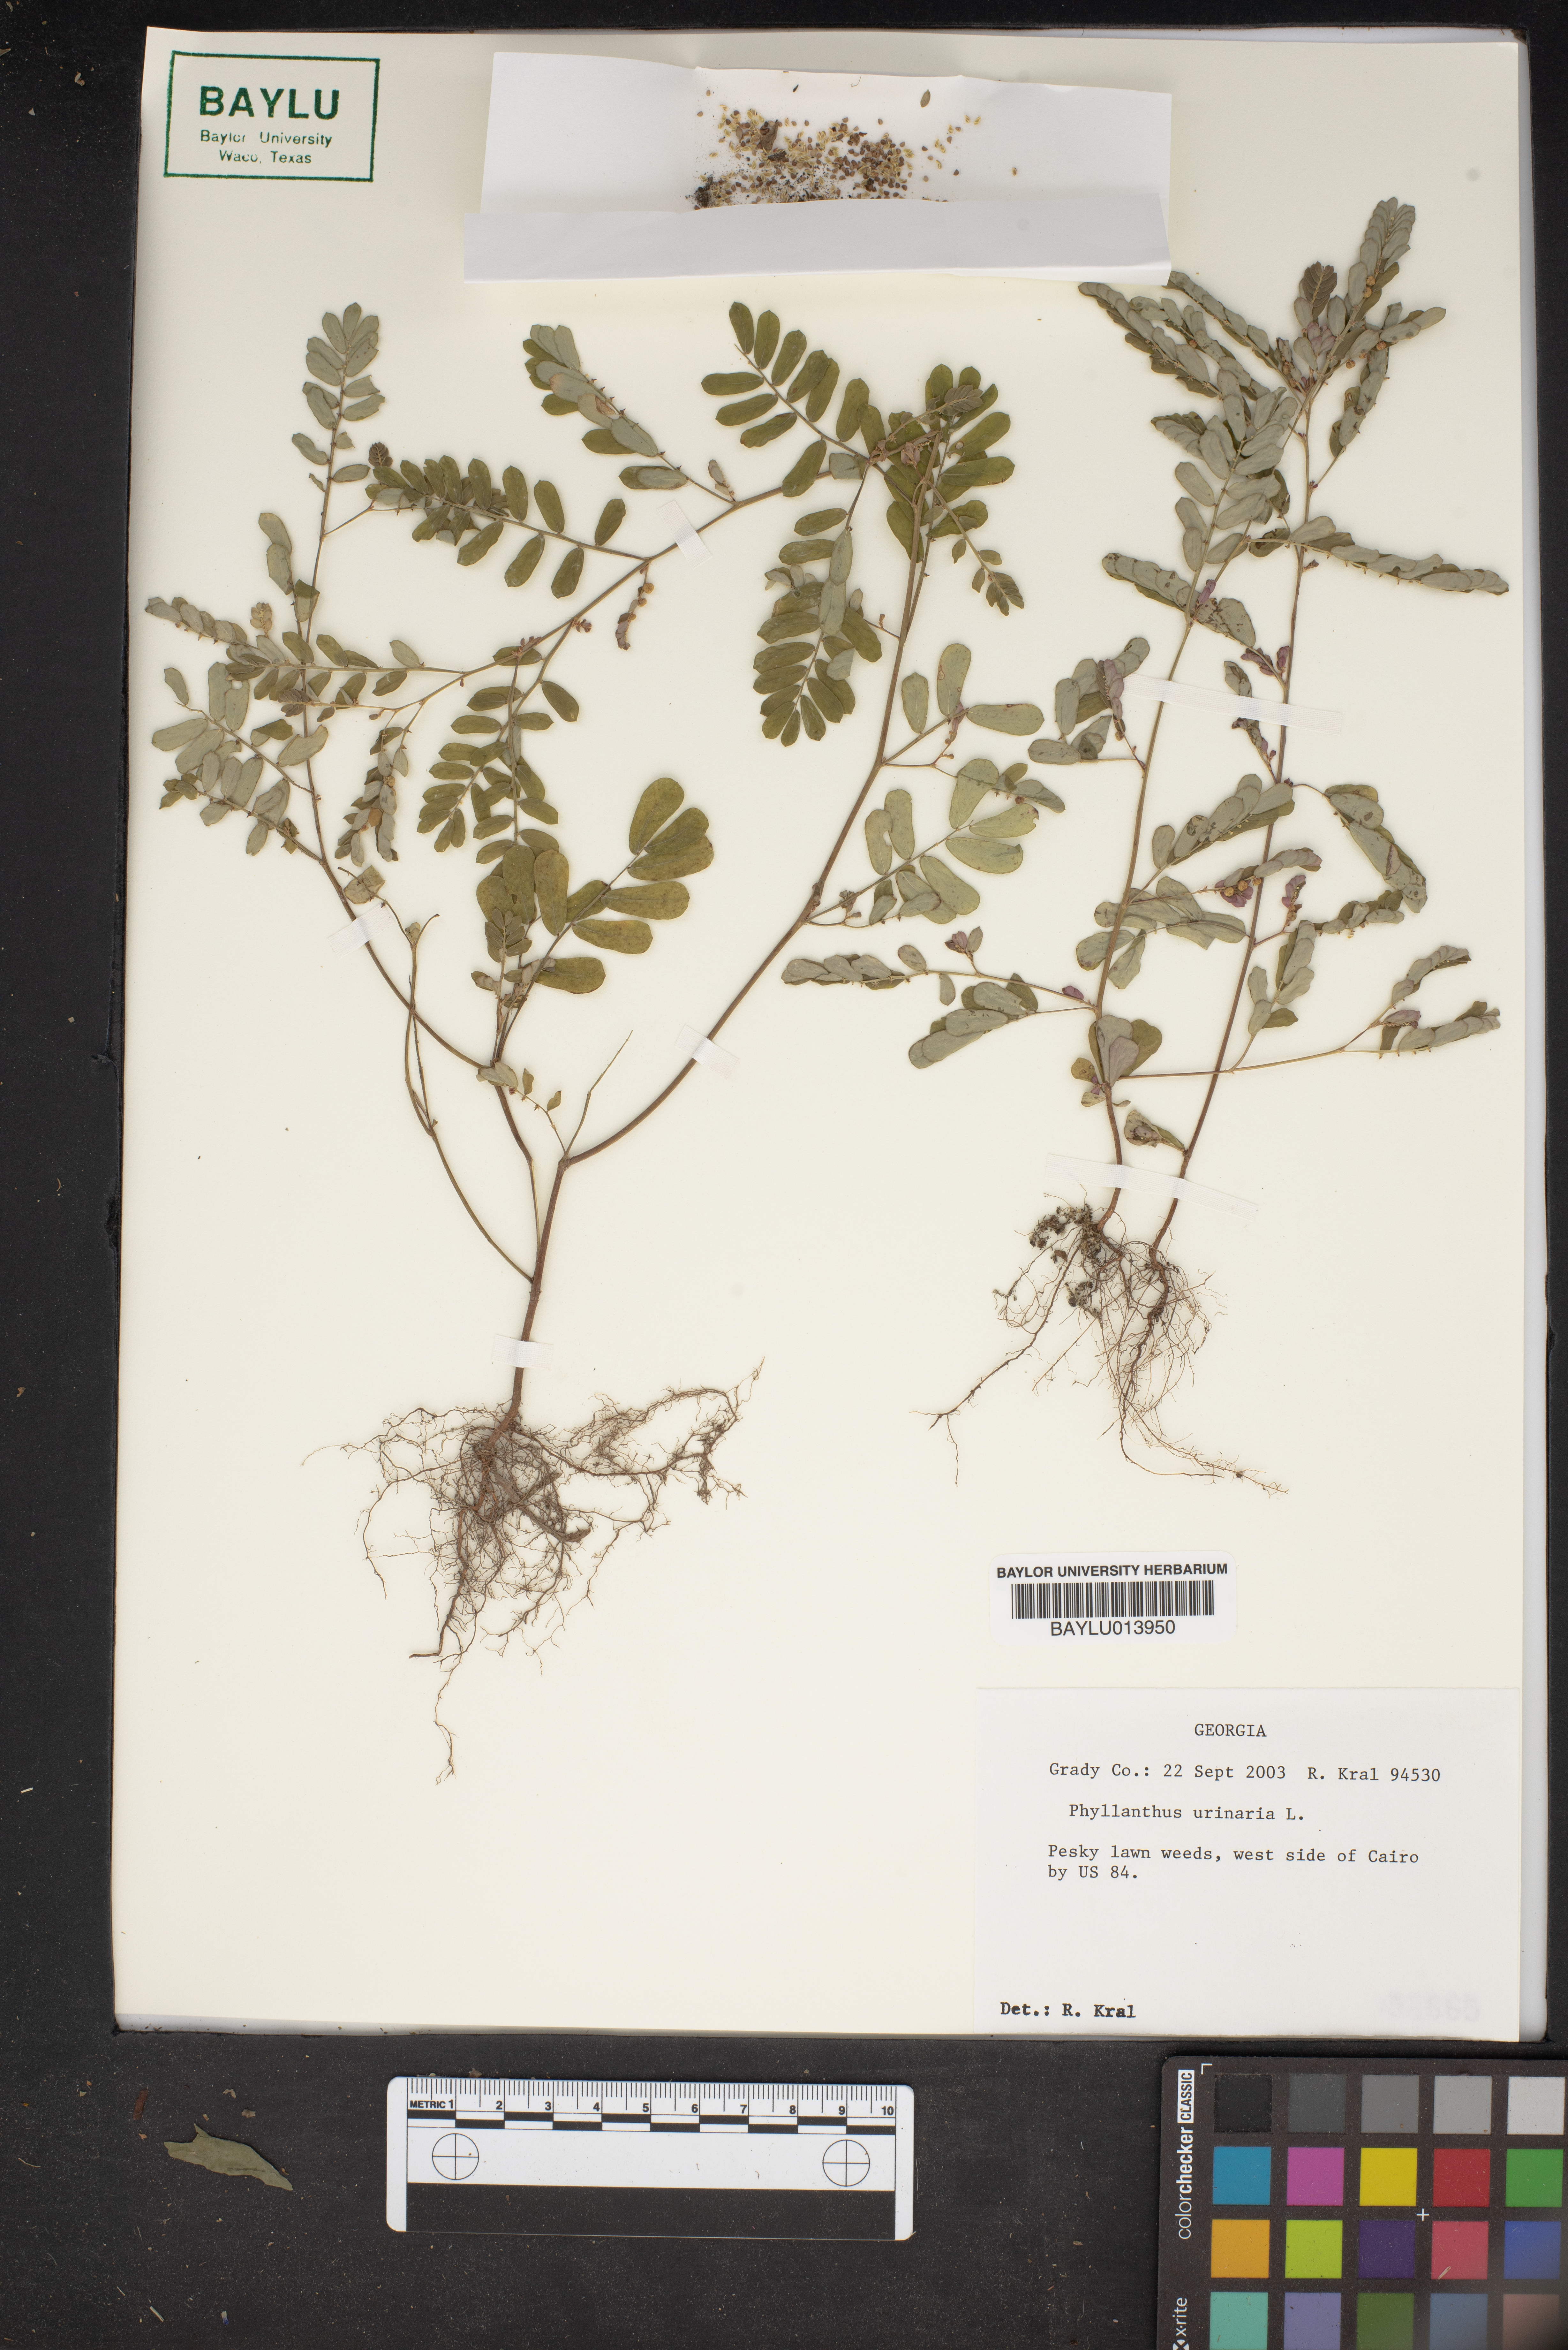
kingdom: Plantae
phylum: Tracheophyta
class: Magnoliopsida
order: Malpighiales
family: Phyllanthaceae
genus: Phyllanthus
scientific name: Phyllanthus urinaria
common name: Chamber bitter
